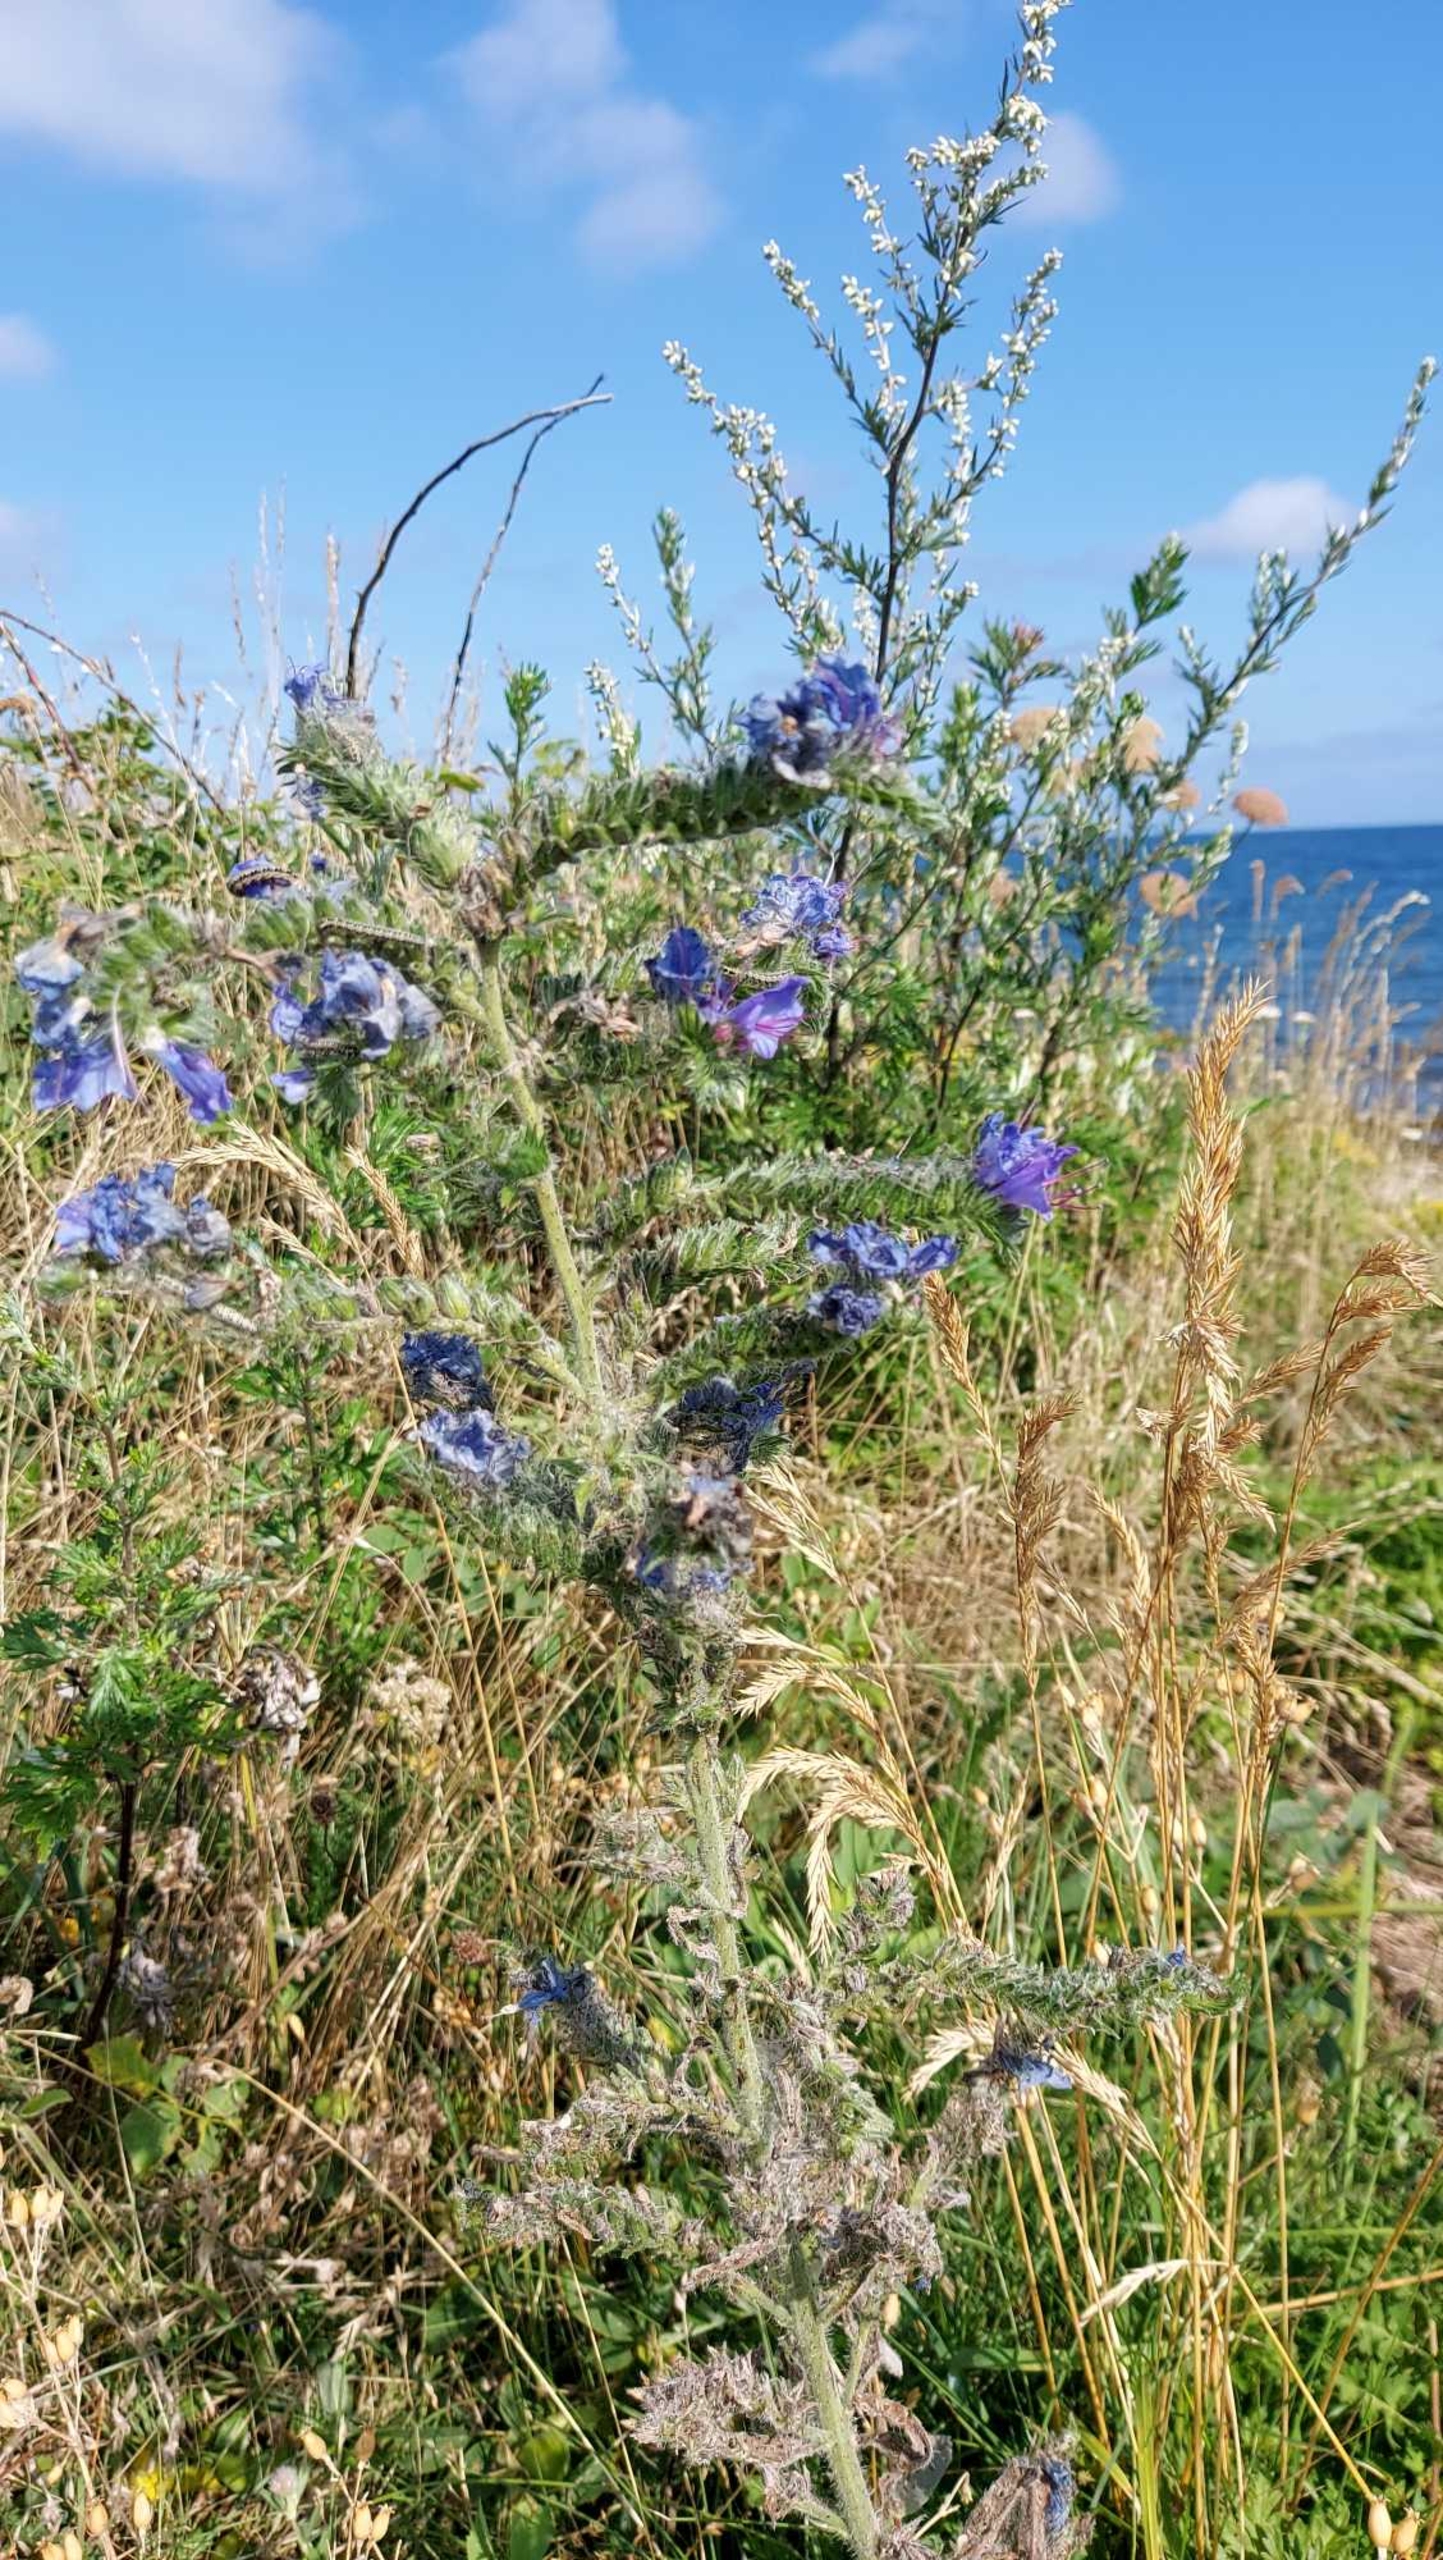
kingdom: Plantae
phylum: Tracheophyta
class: Magnoliopsida
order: Boraginales
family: Boraginaceae
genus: Echium
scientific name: Echium vulgare
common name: Slangehoved
